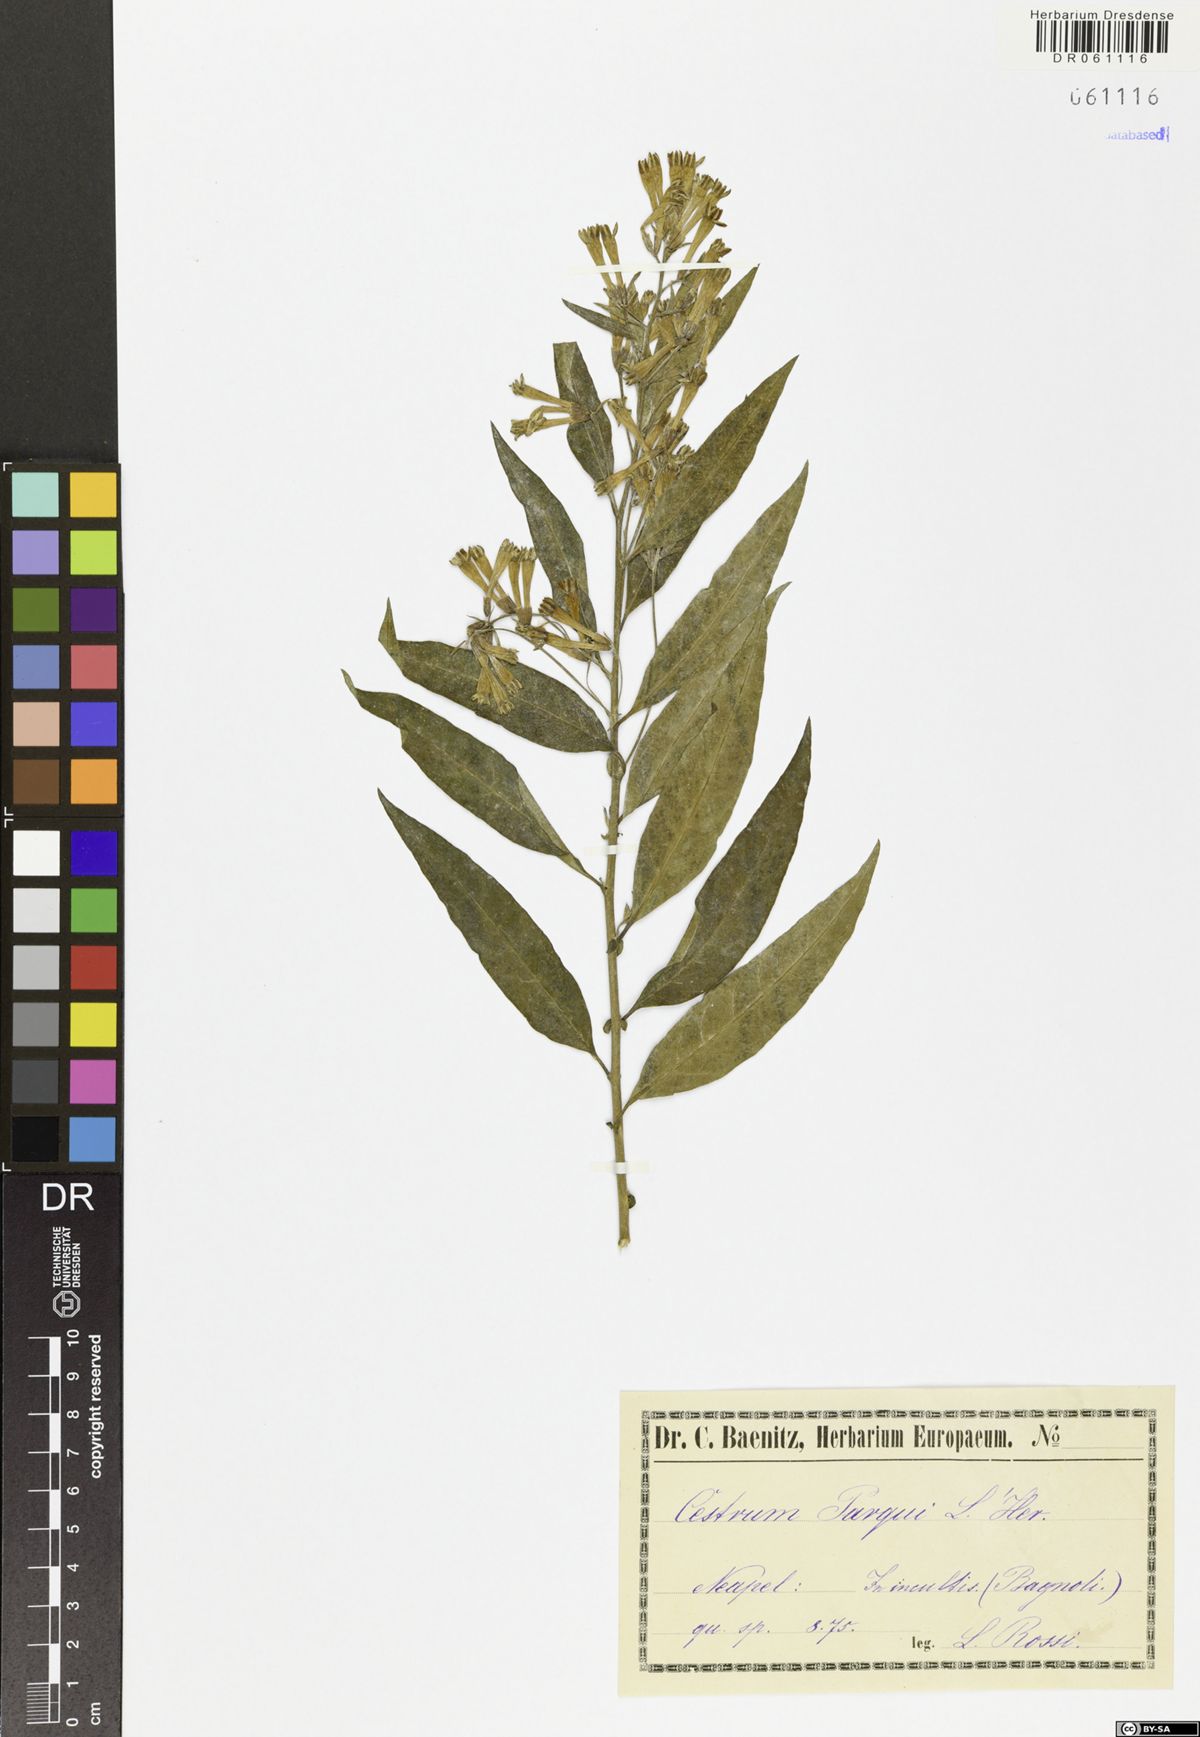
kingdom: Plantae
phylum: Tracheophyta
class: Magnoliopsida
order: Solanales
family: Solanaceae
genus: Cestrum
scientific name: Cestrum thyrsoideum
